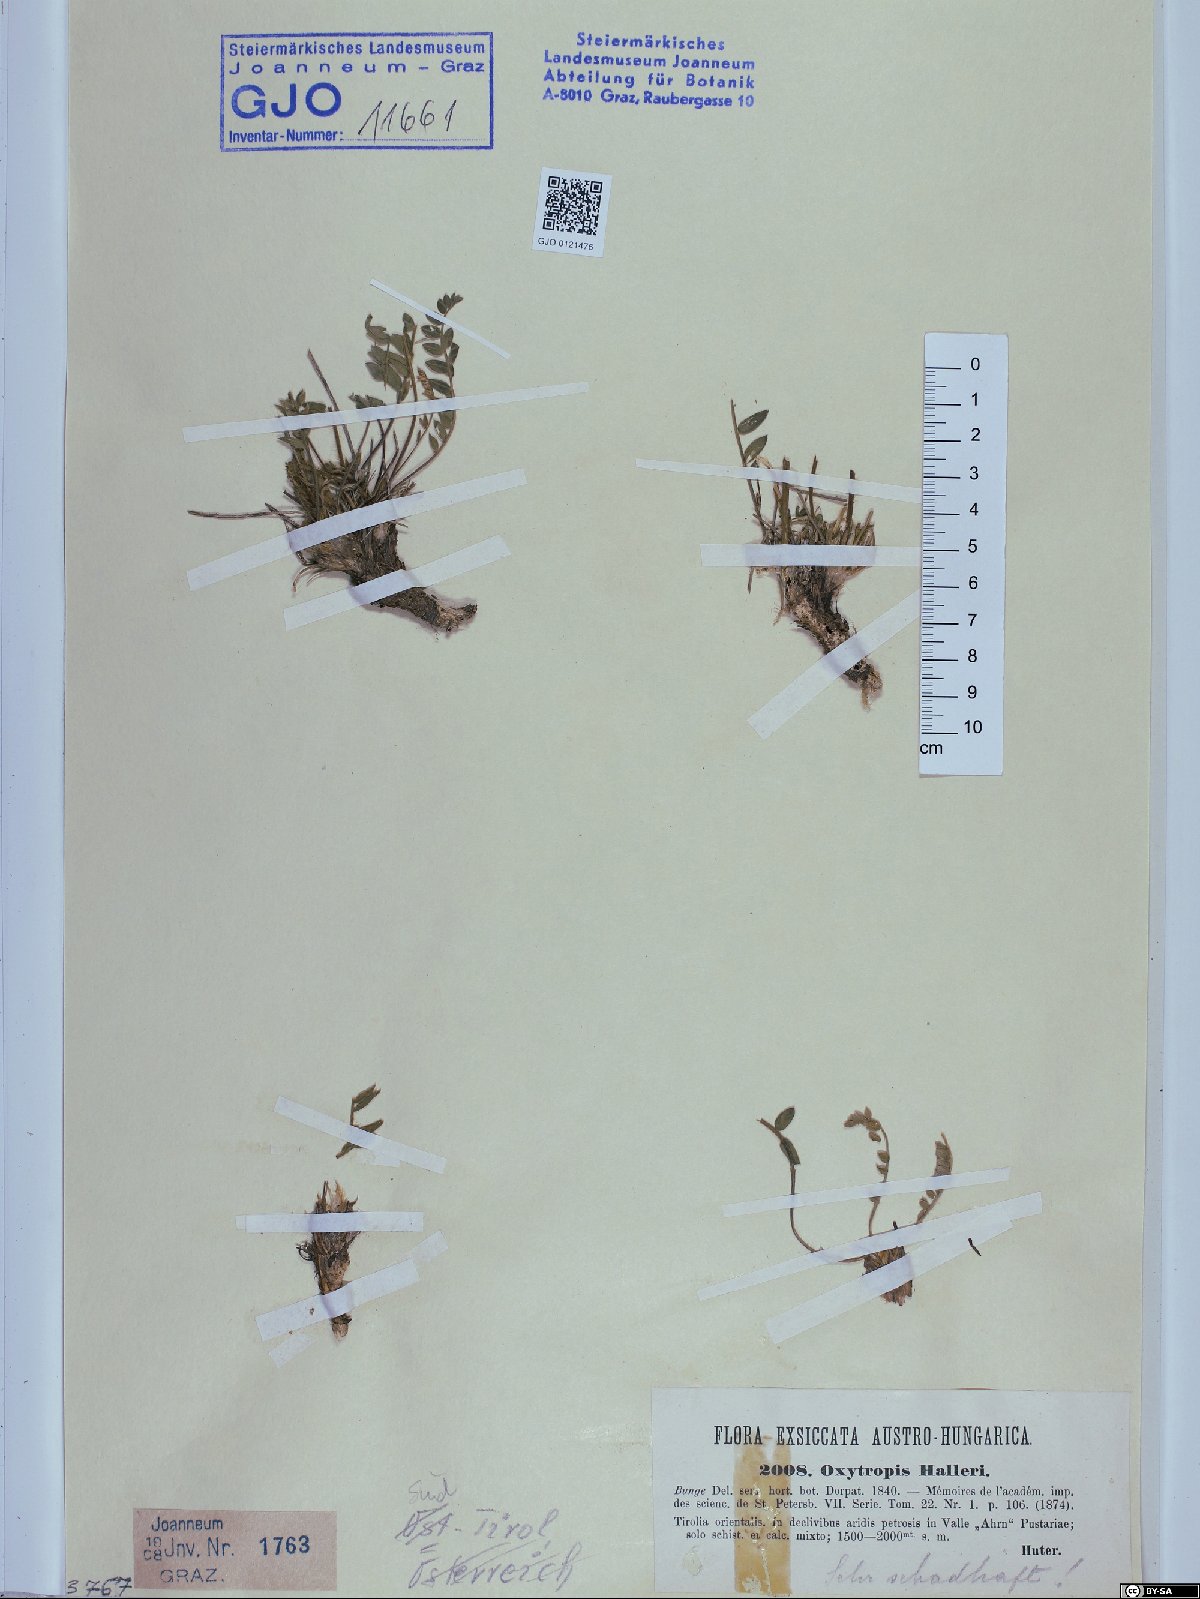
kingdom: Plantae
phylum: Tracheophyta
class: Magnoliopsida
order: Fabales
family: Fabaceae
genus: Oxytropis
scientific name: Oxytropis halleri
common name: Purple oxytropis
